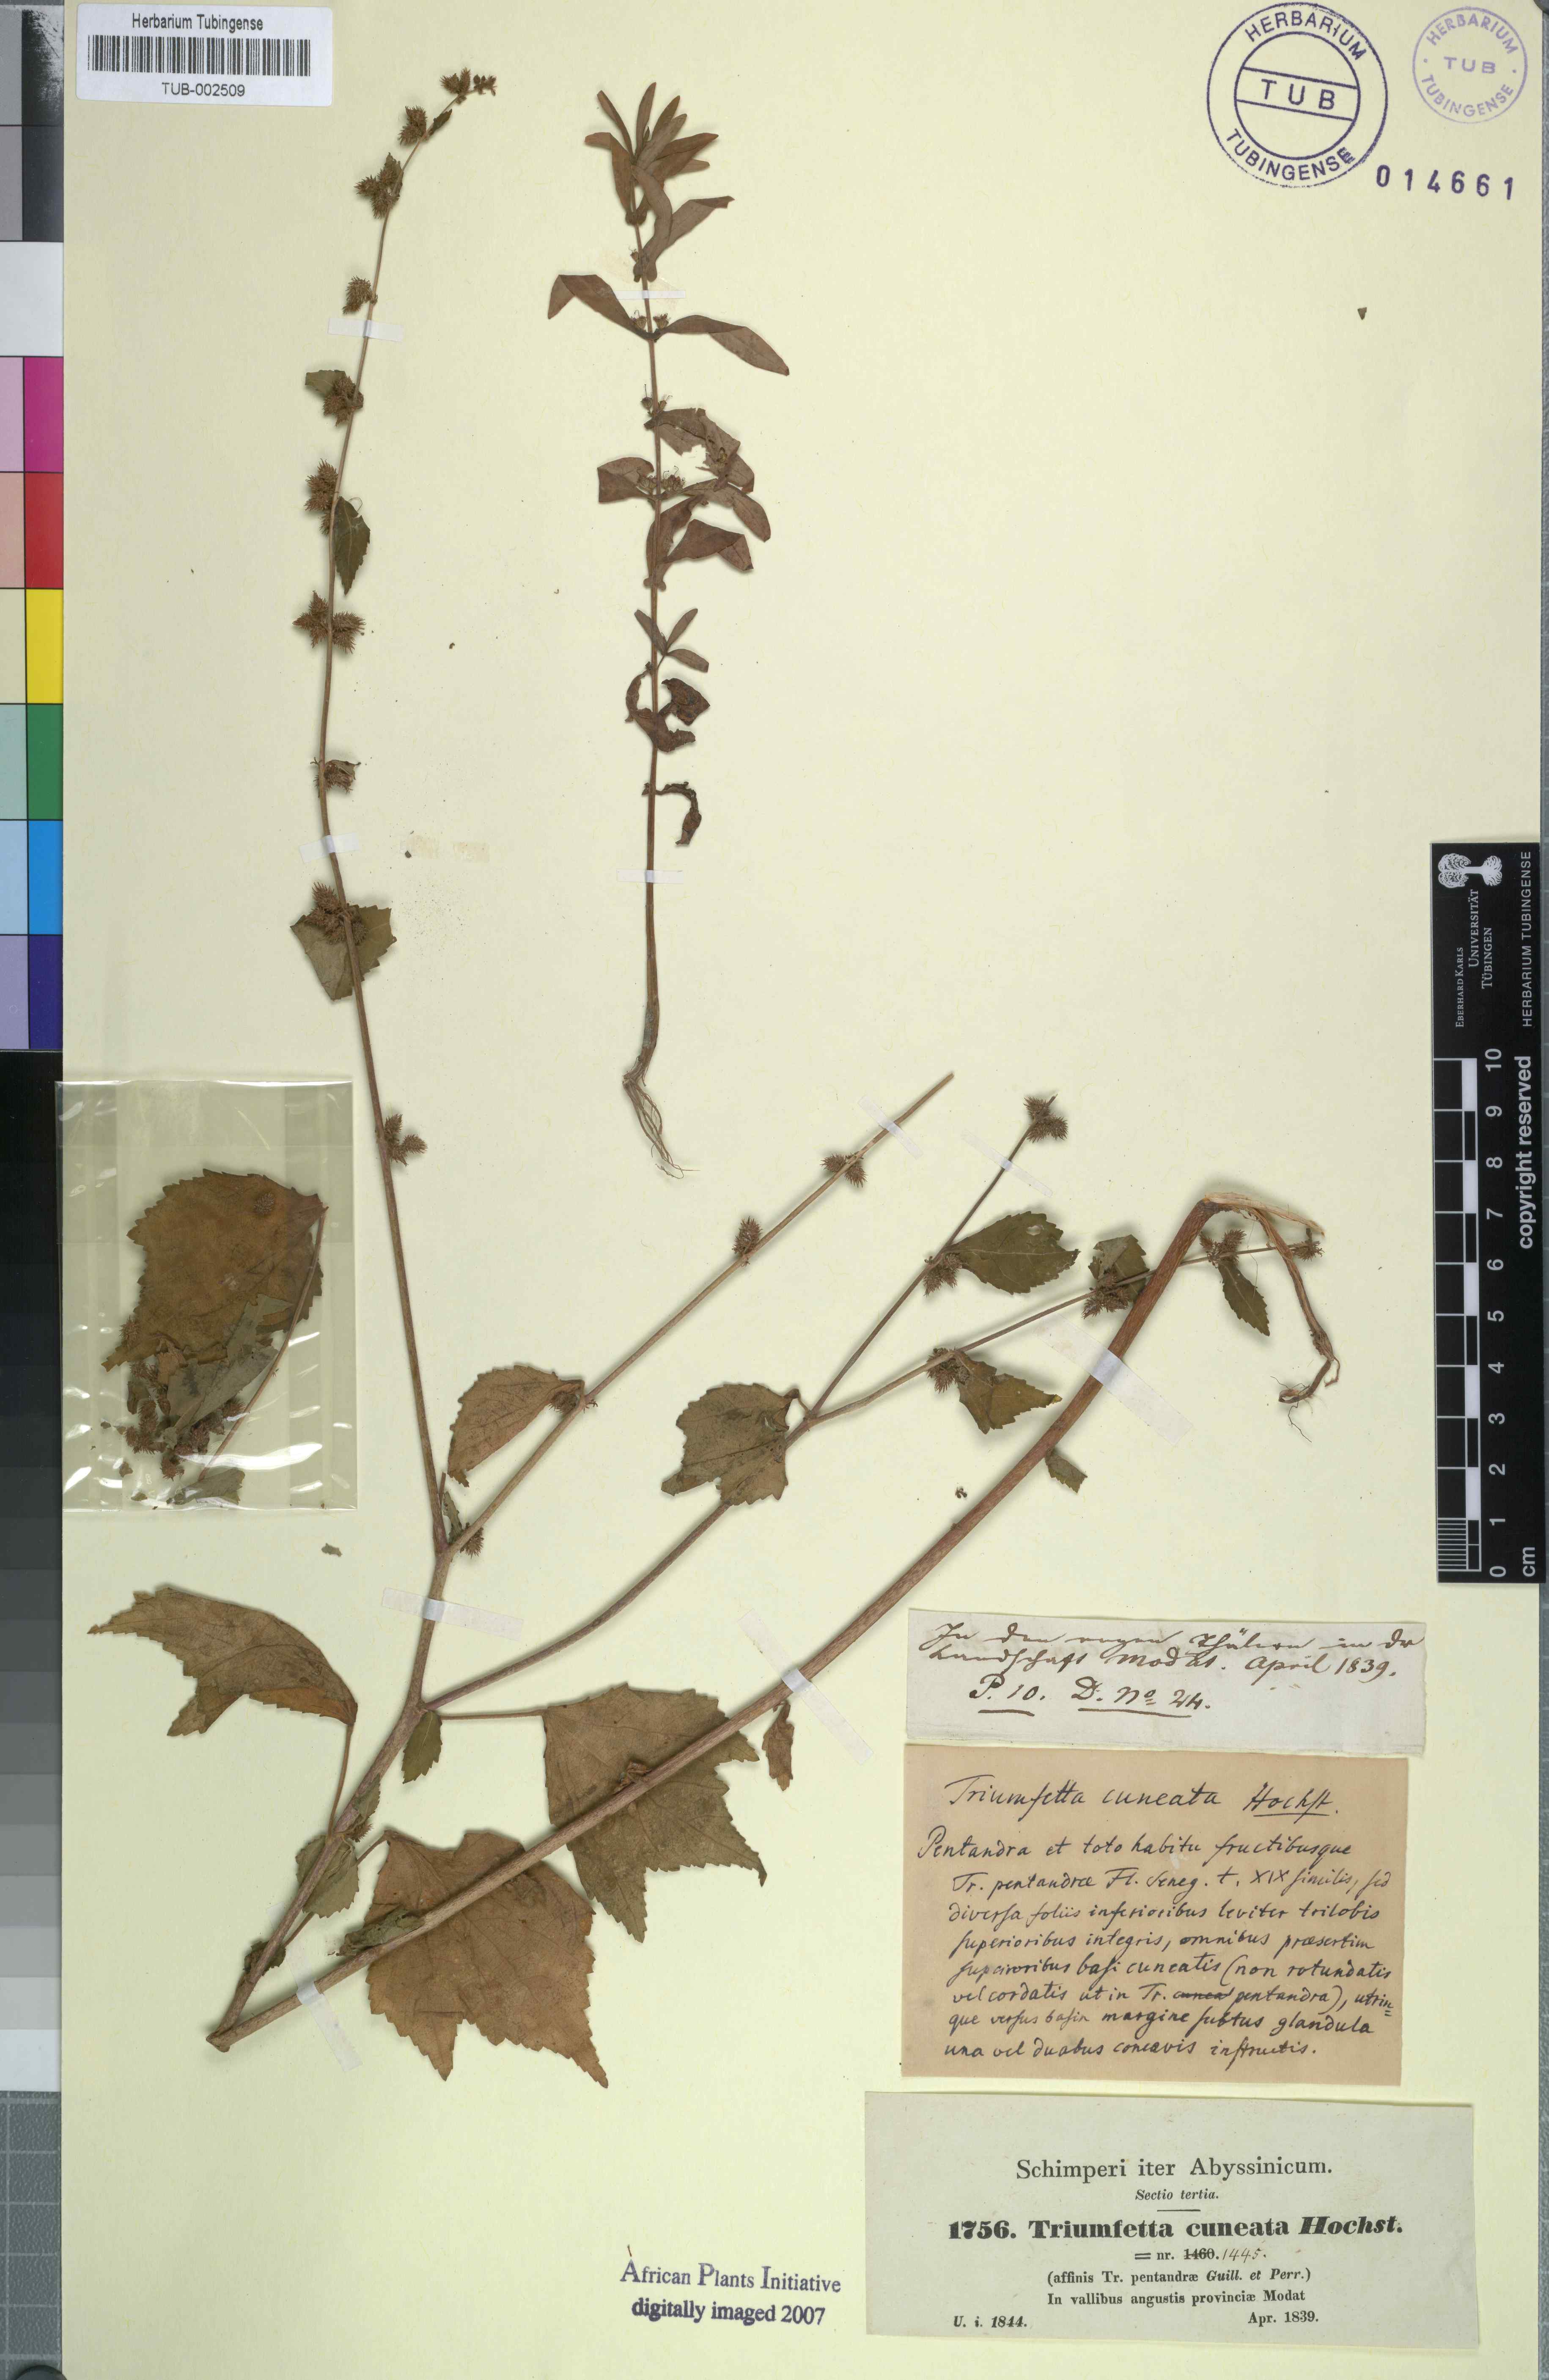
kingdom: Plantae
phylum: Tracheophyta
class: Magnoliopsida
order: Malvales
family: Malvaceae
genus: Triumfetta
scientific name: Triumfetta pentandra
